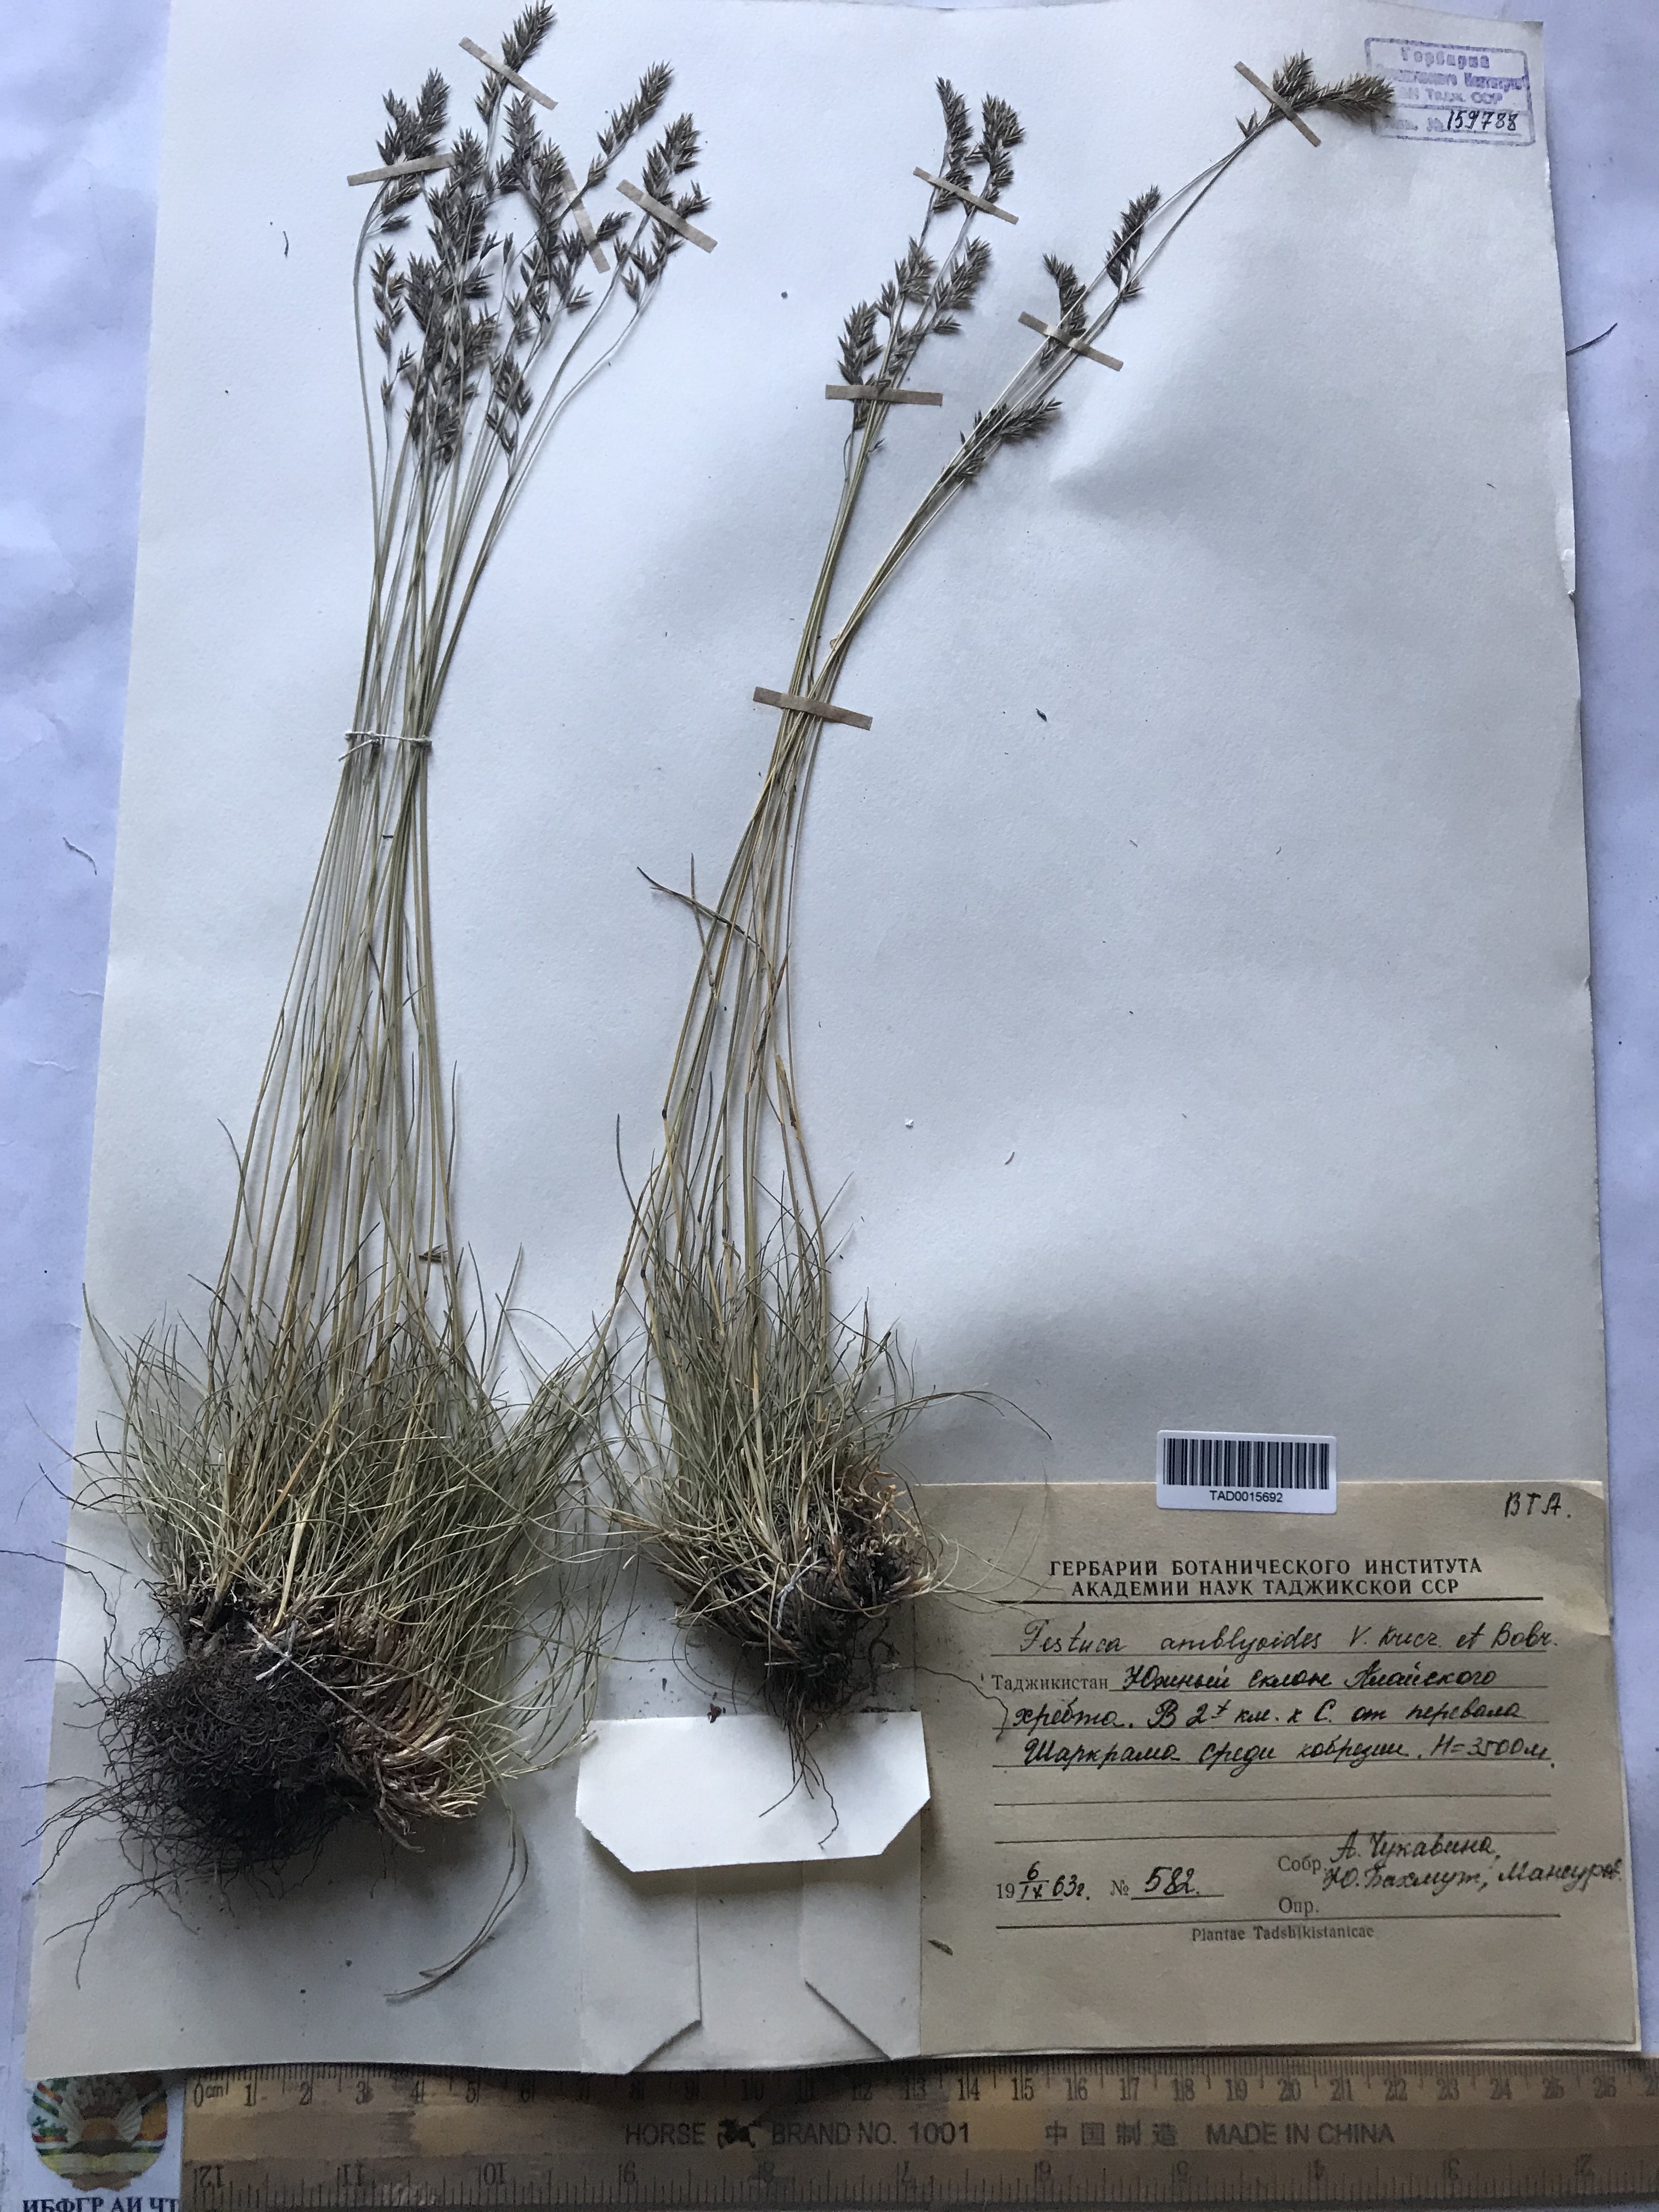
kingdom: Plantae
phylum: Tracheophyta
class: Liliopsida
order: Poales
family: Poaceae
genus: Festuca
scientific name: Festuca amblyodes
